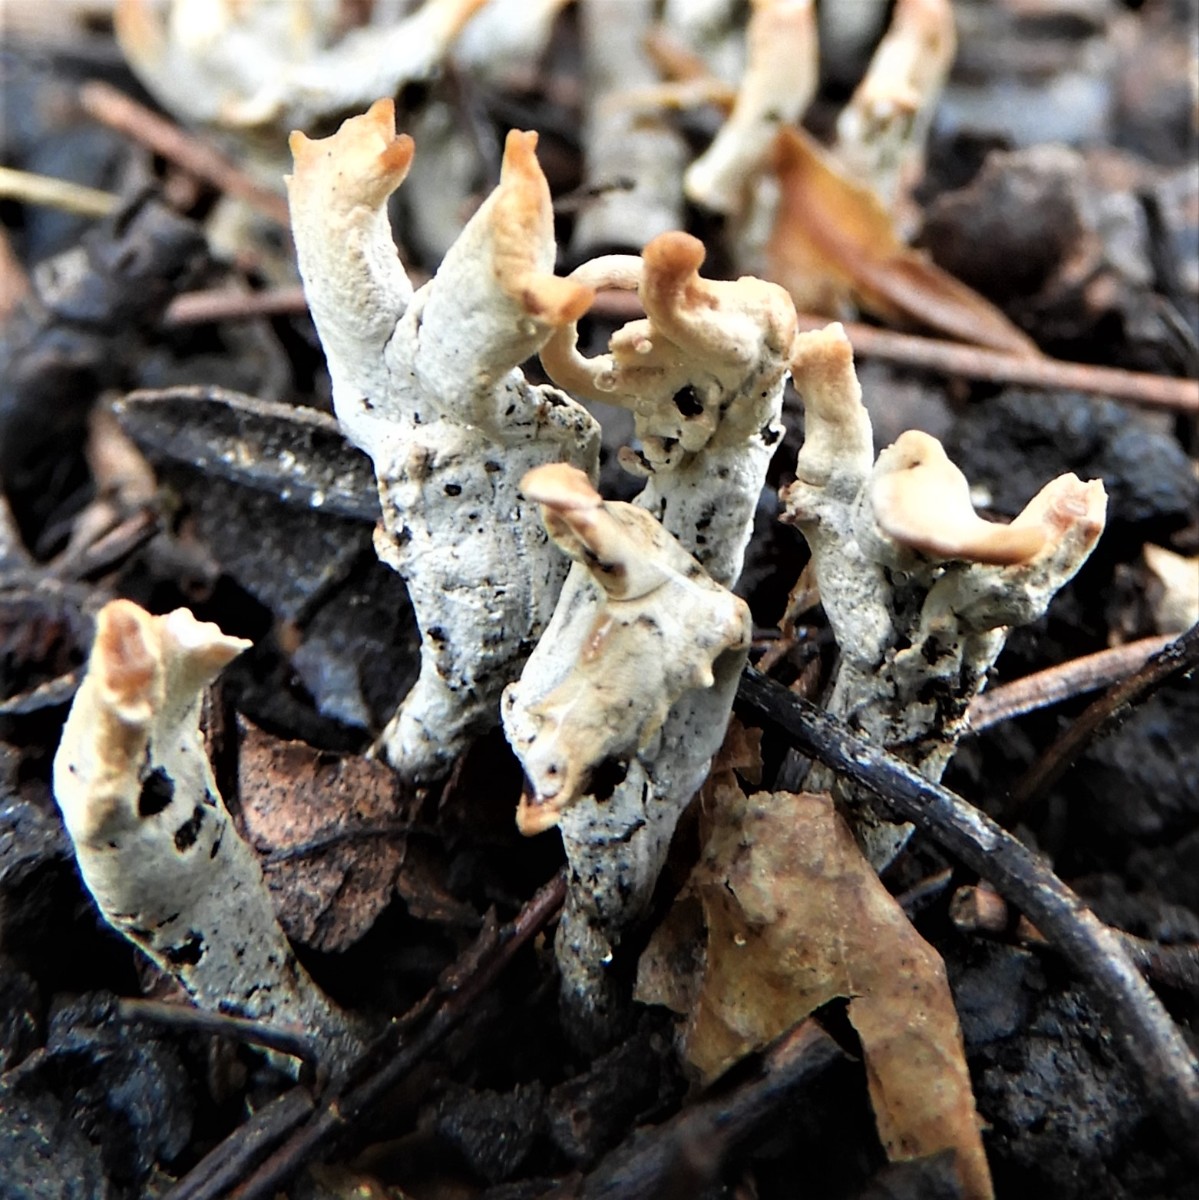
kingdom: Fungi
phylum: Ascomycota
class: Sordariomycetes
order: Xylariales
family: Xylariaceae
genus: Xylaria
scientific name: Xylaria oxyacanthae
